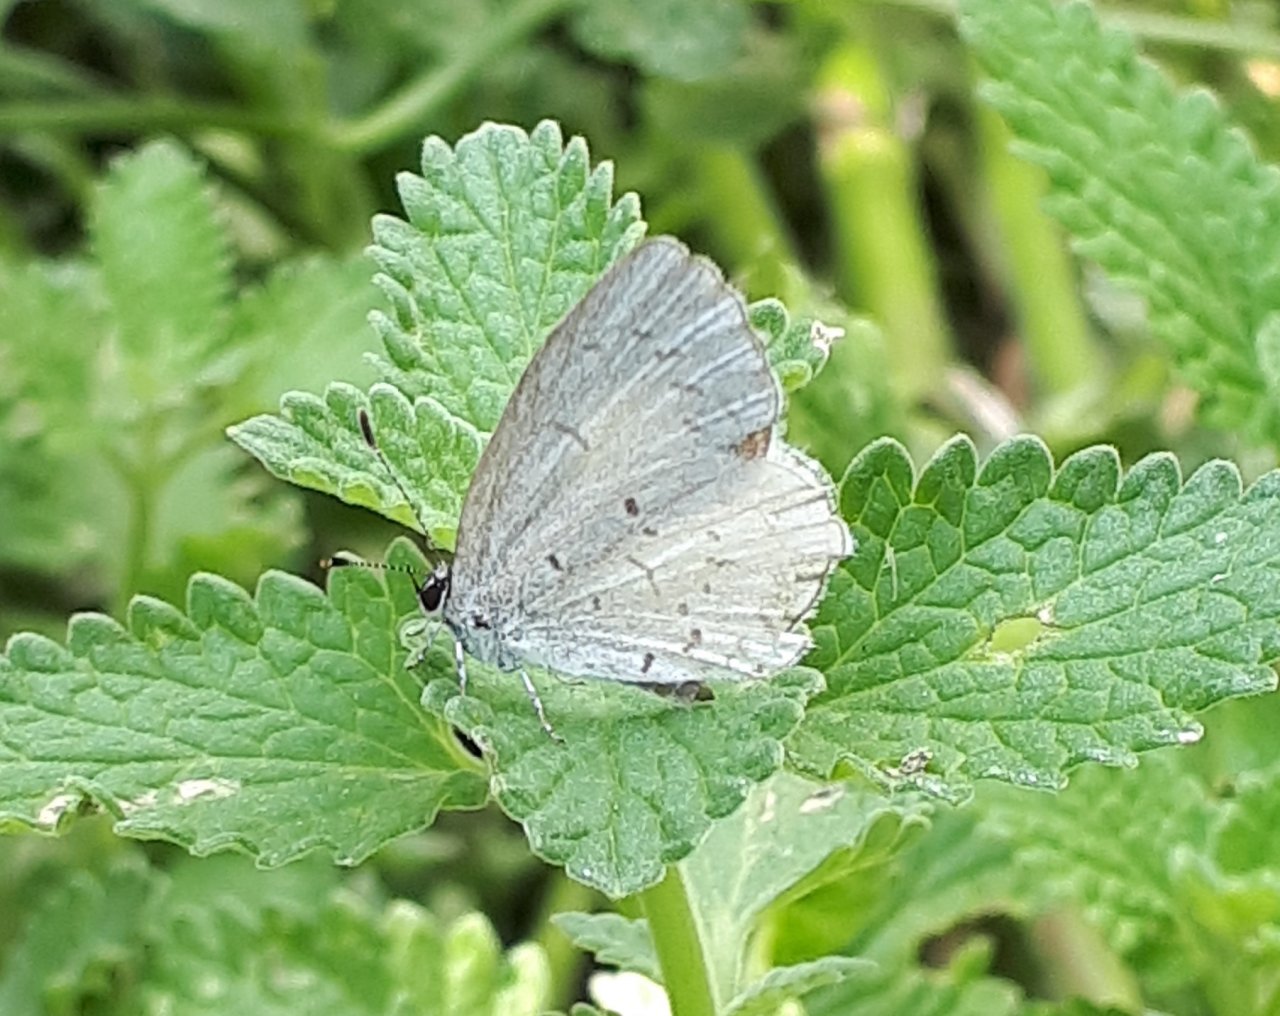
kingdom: Animalia
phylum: Arthropoda
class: Insecta
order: Lepidoptera
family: Lycaenidae
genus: Celastrina
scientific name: Celastrina
